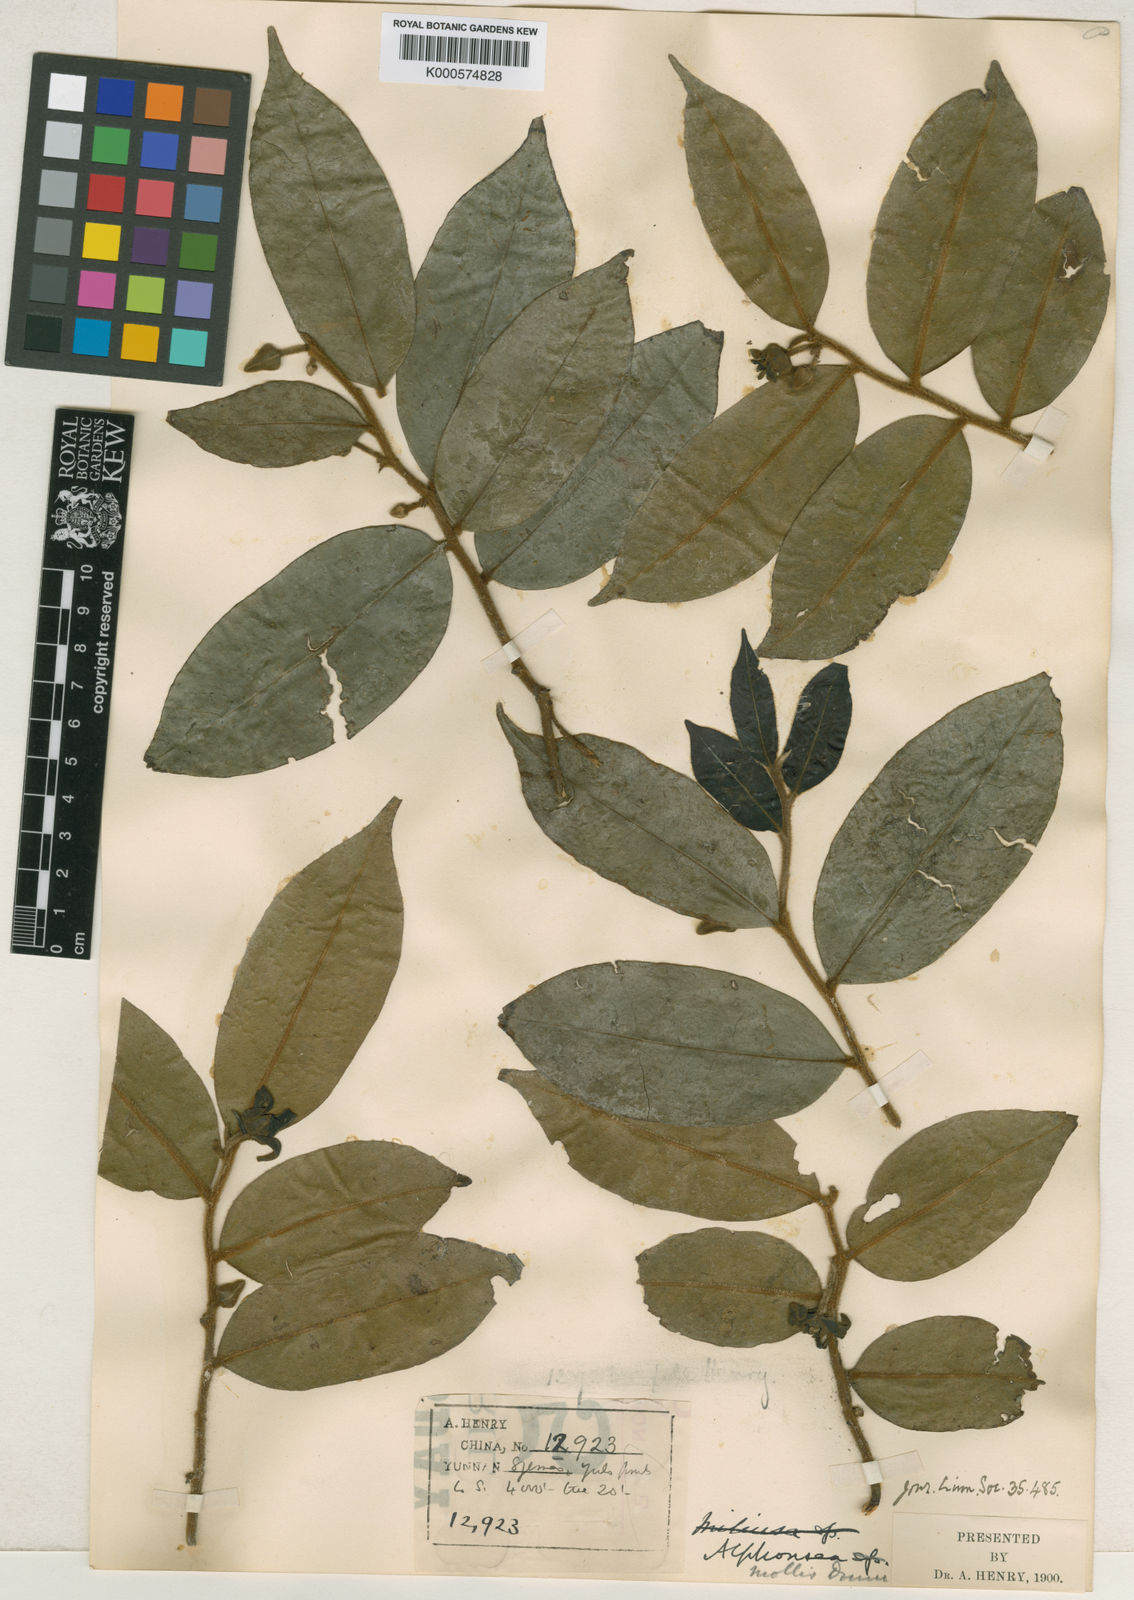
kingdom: Plantae
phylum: Tracheophyta
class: Magnoliopsida
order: Magnoliales
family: Annonaceae
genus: Alphonsea
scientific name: Alphonsea mollis
